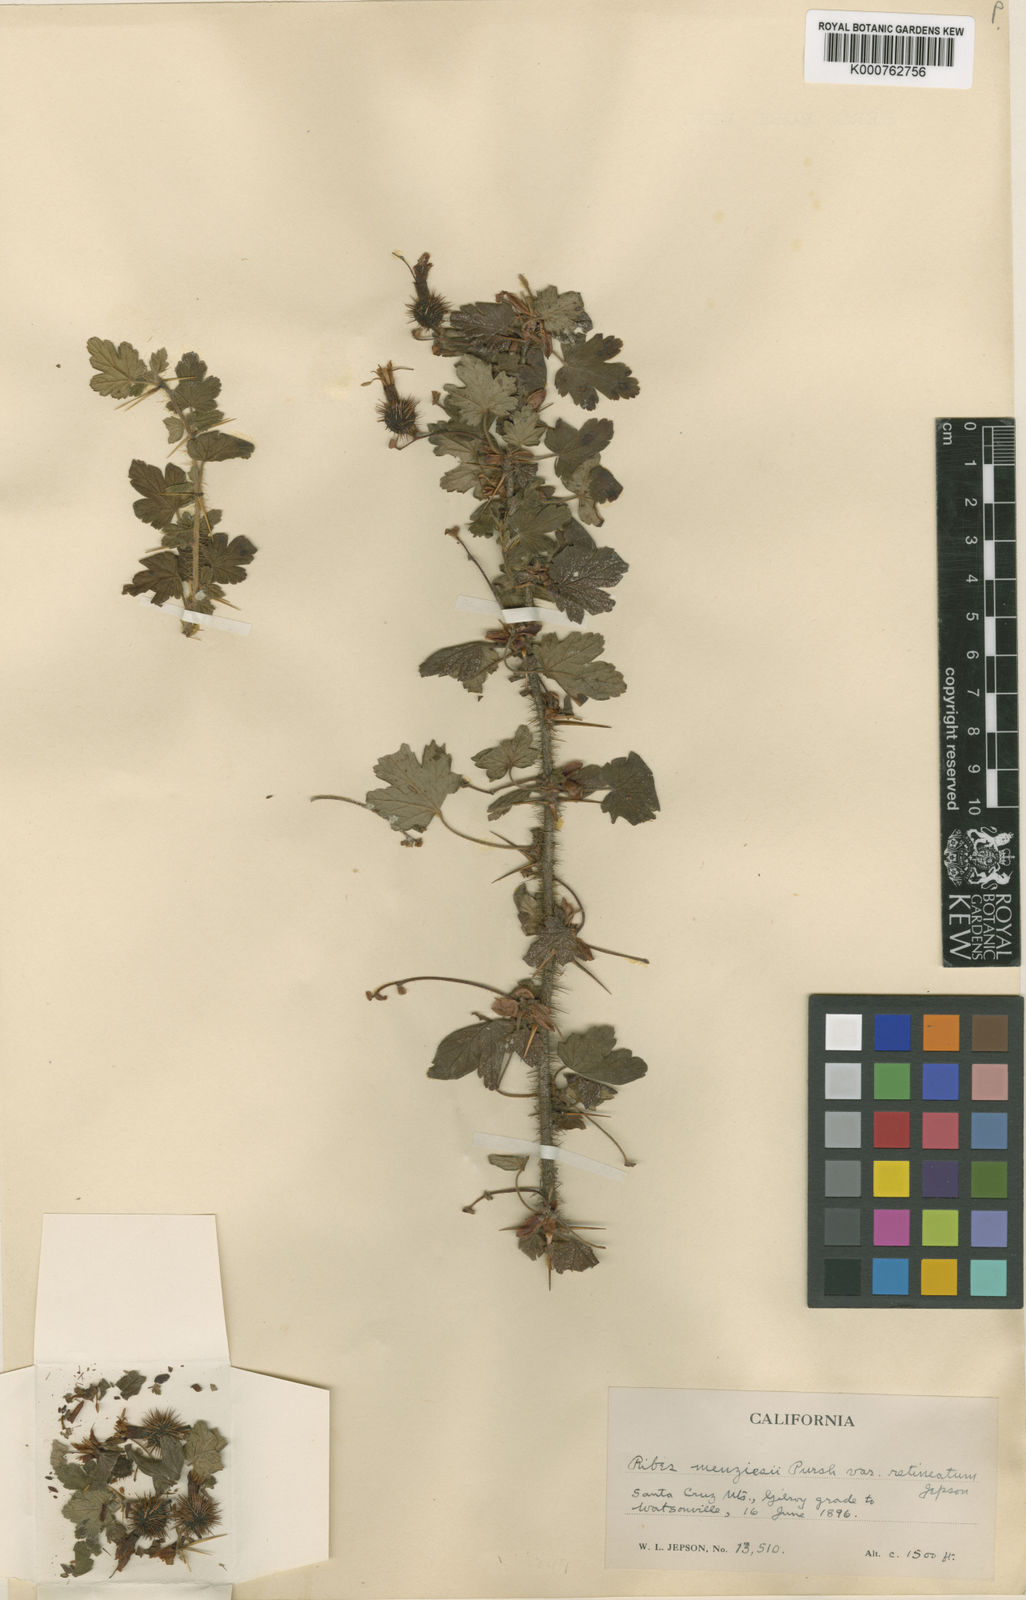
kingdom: Plantae
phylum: Tracheophyta
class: Magnoliopsida
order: Saxifragales
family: Grossulariaceae
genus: Ribes
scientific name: Ribes menziesii
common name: Canyon gooseberry
